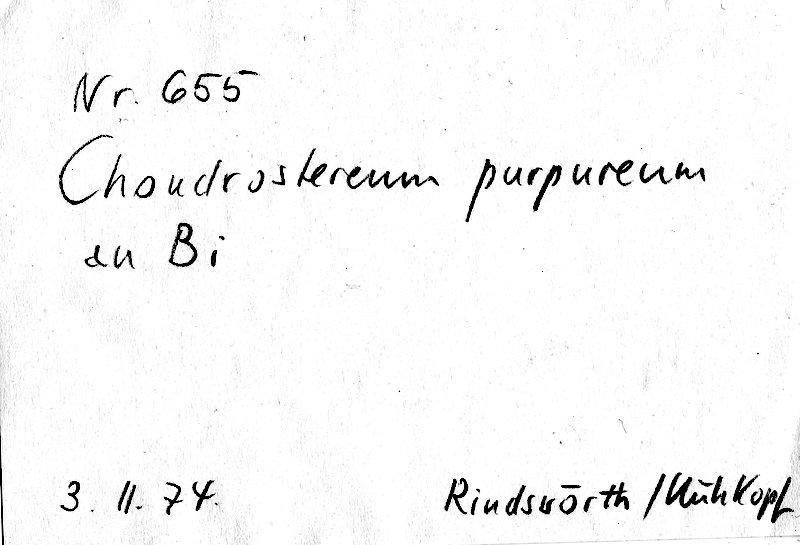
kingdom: Plantae
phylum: Tracheophyta
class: Magnoliopsida
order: Fagales
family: Betulaceae
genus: Betula
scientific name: Betula
